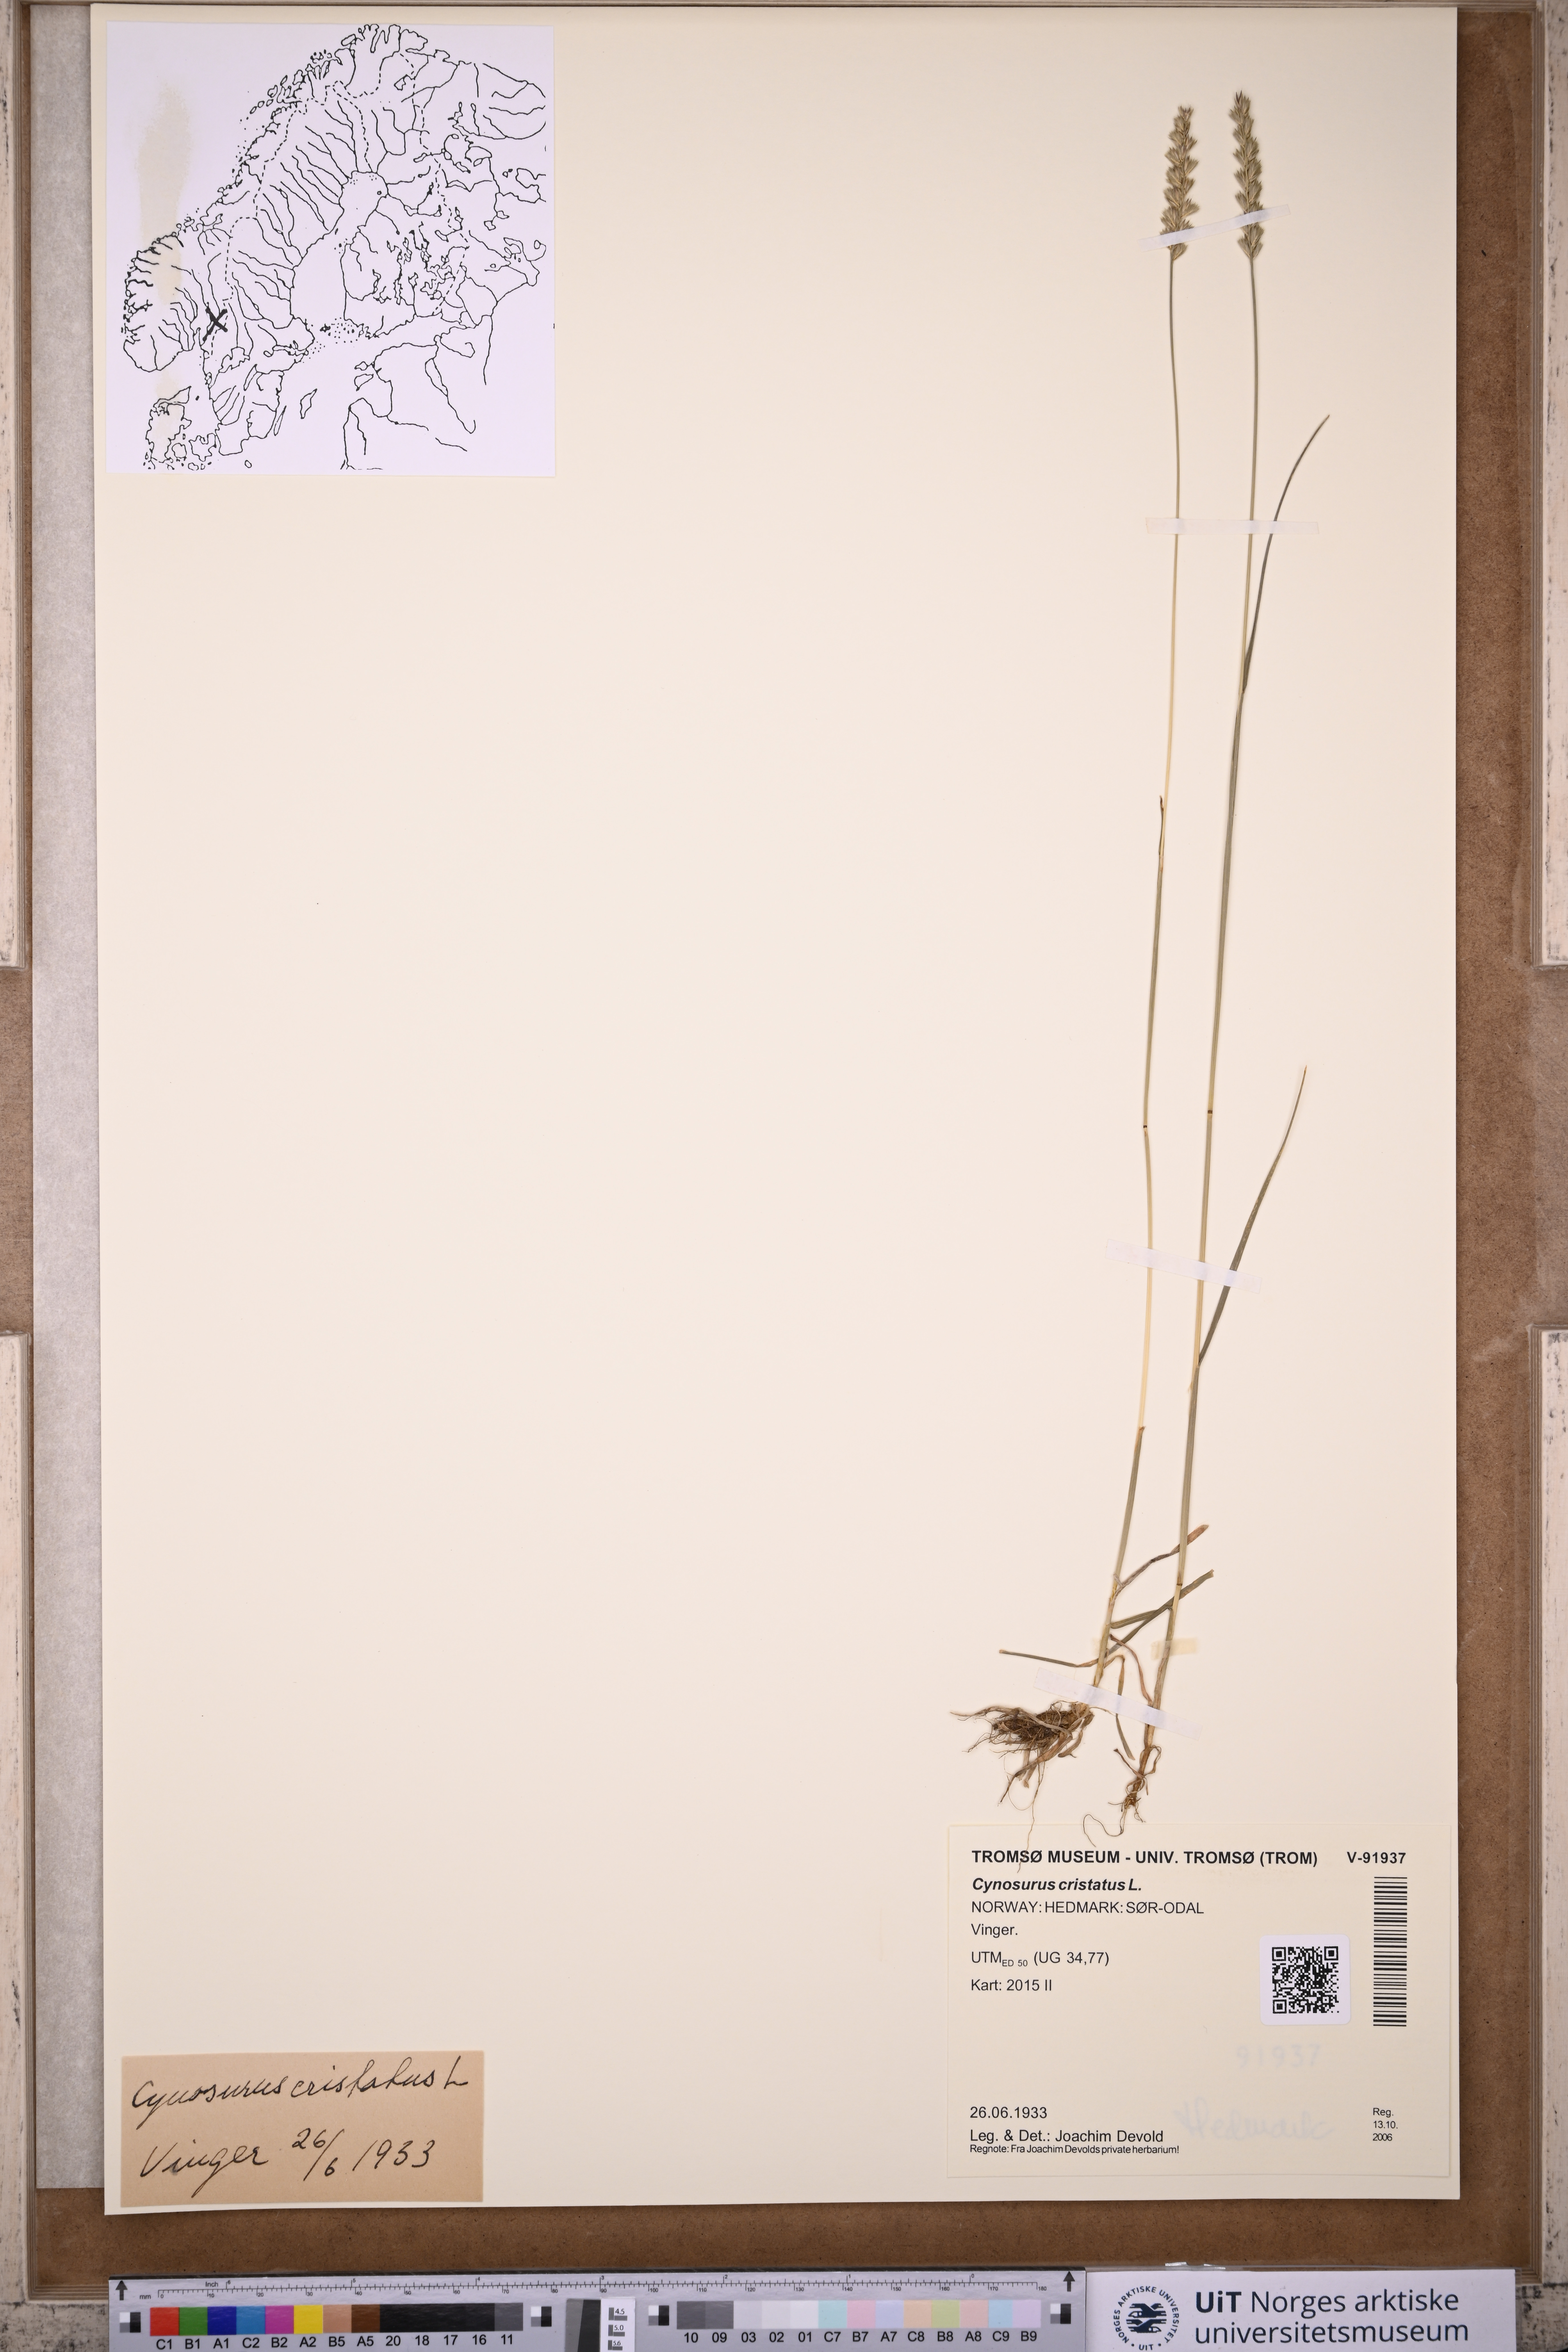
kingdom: Plantae
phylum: Tracheophyta
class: Liliopsida
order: Poales
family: Poaceae
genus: Cynosurus
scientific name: Cynosurus cristatus
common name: Crested dog's-tail
